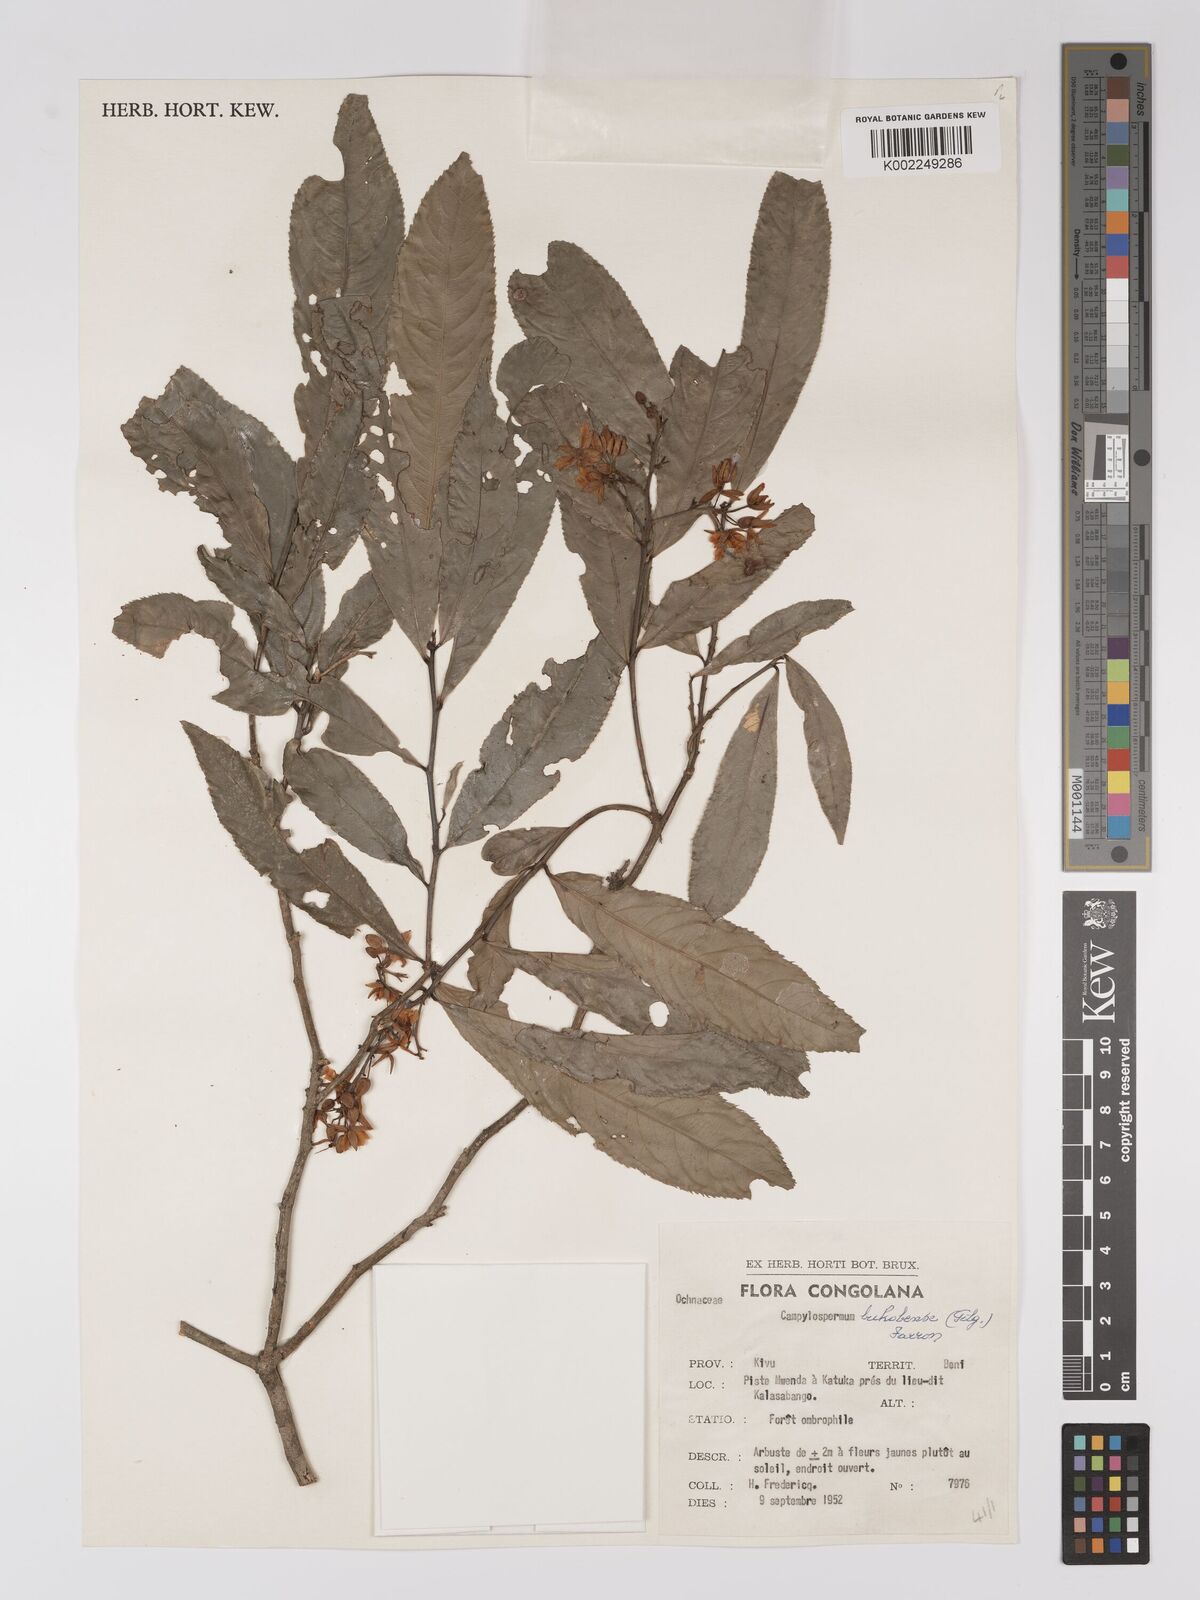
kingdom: Plantae
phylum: Tracheophyta
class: Magnoliopsida
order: Malpighiales
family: Ochnaceae
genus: Campylospermum
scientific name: Campylospermum likimiense
